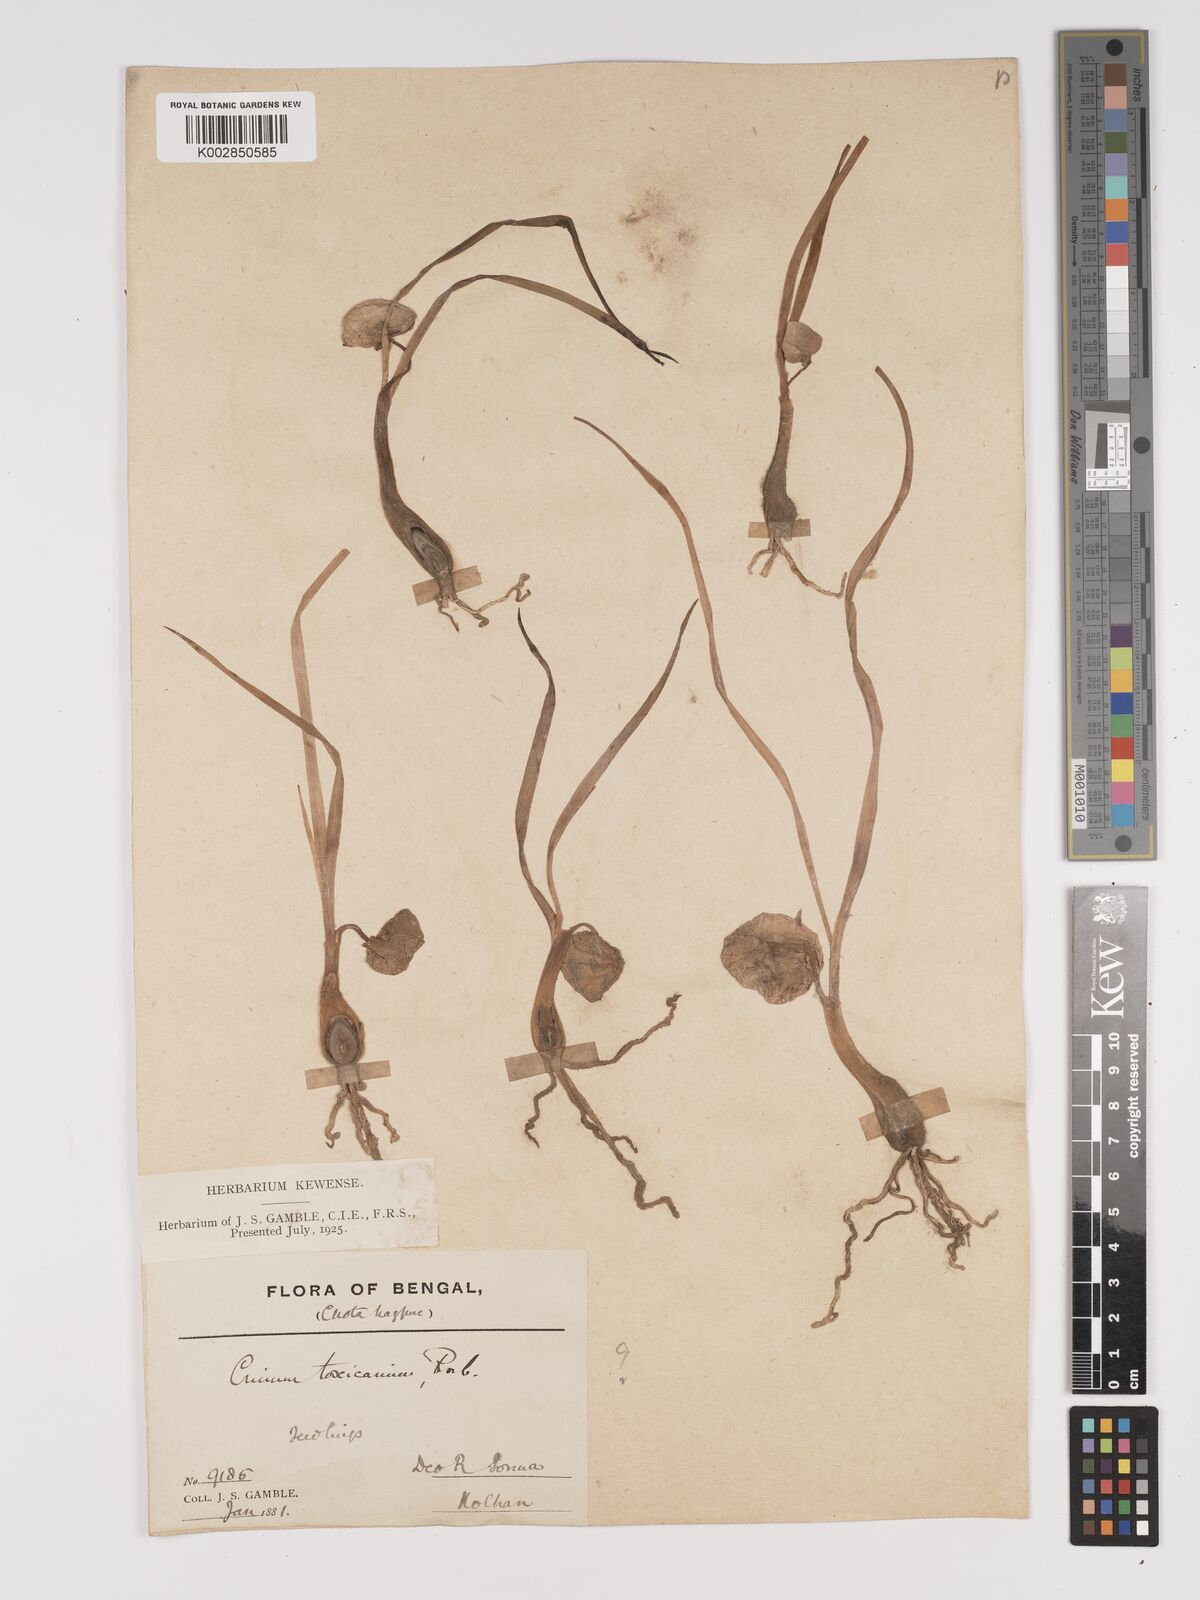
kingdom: Plantae
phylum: Tracheophyta
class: Liliopsida
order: Asparagales
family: Amaryllidaceae
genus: Crinum
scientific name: Crinum asiaticum
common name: Poisonbulb
